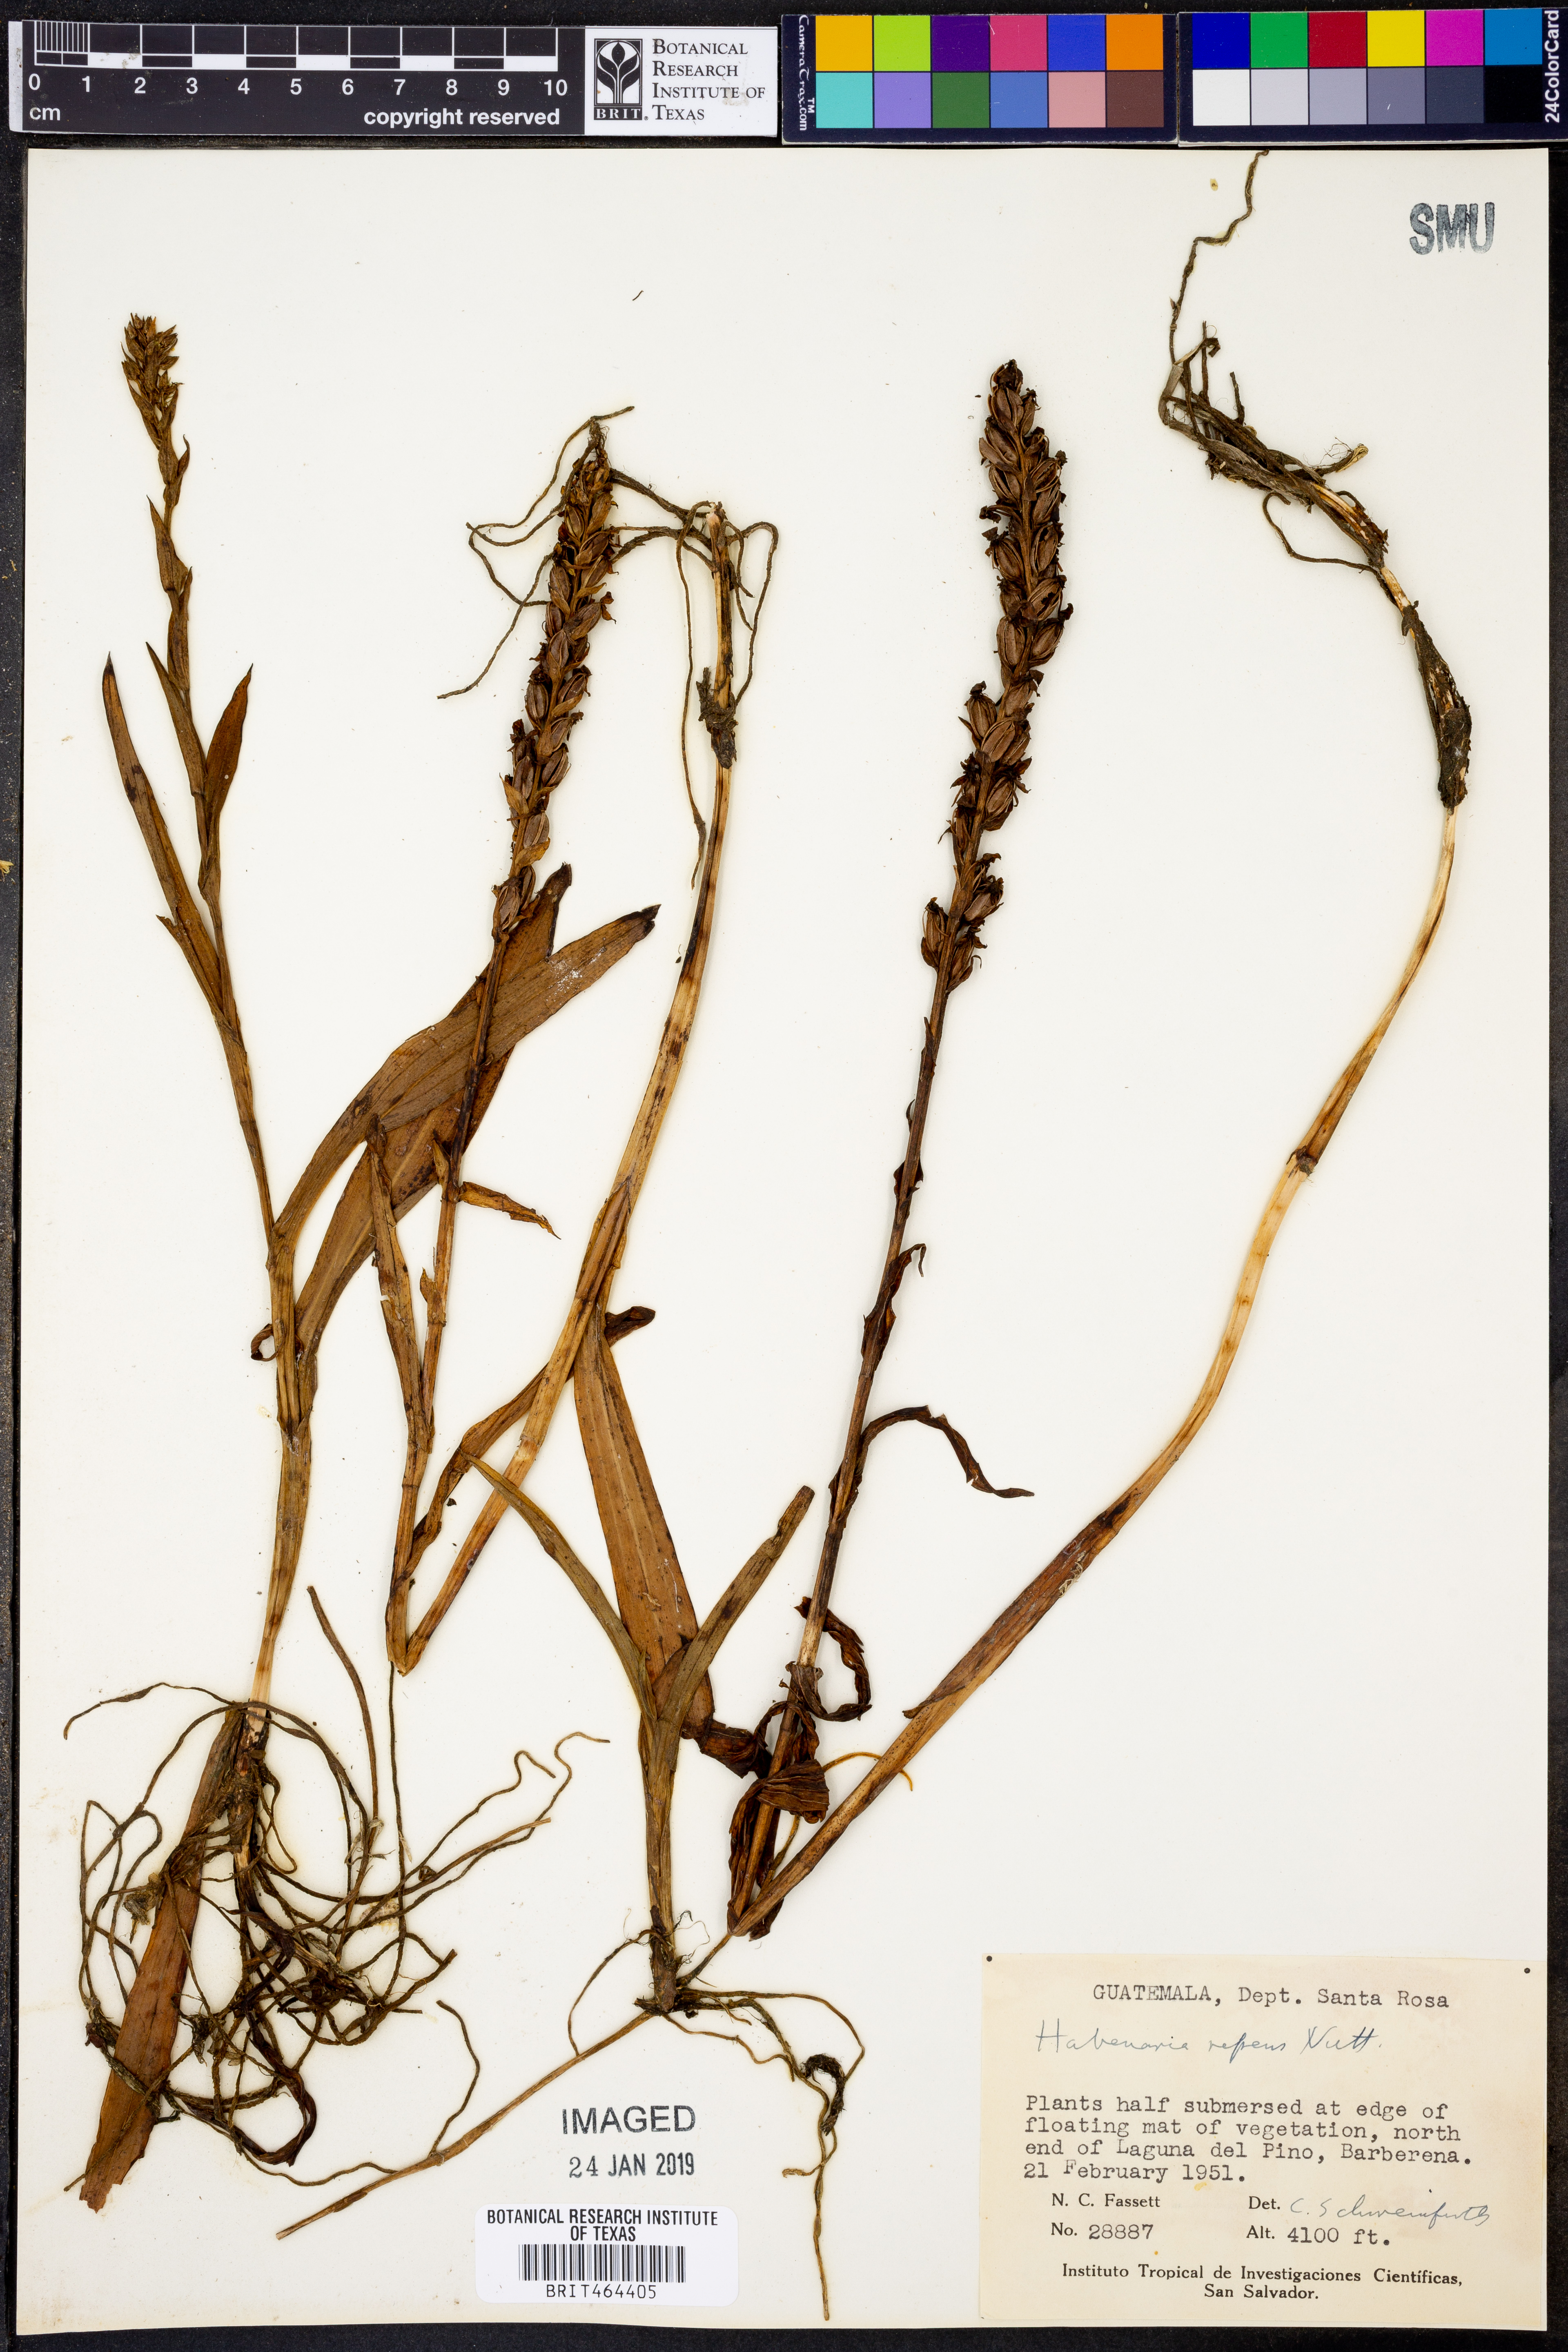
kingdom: Plantae
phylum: Tracheophyta
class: Liliopsida
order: Asparagales
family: Orchidaceae
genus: Habenaria
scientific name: Habenaria repens
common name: Water orchid
